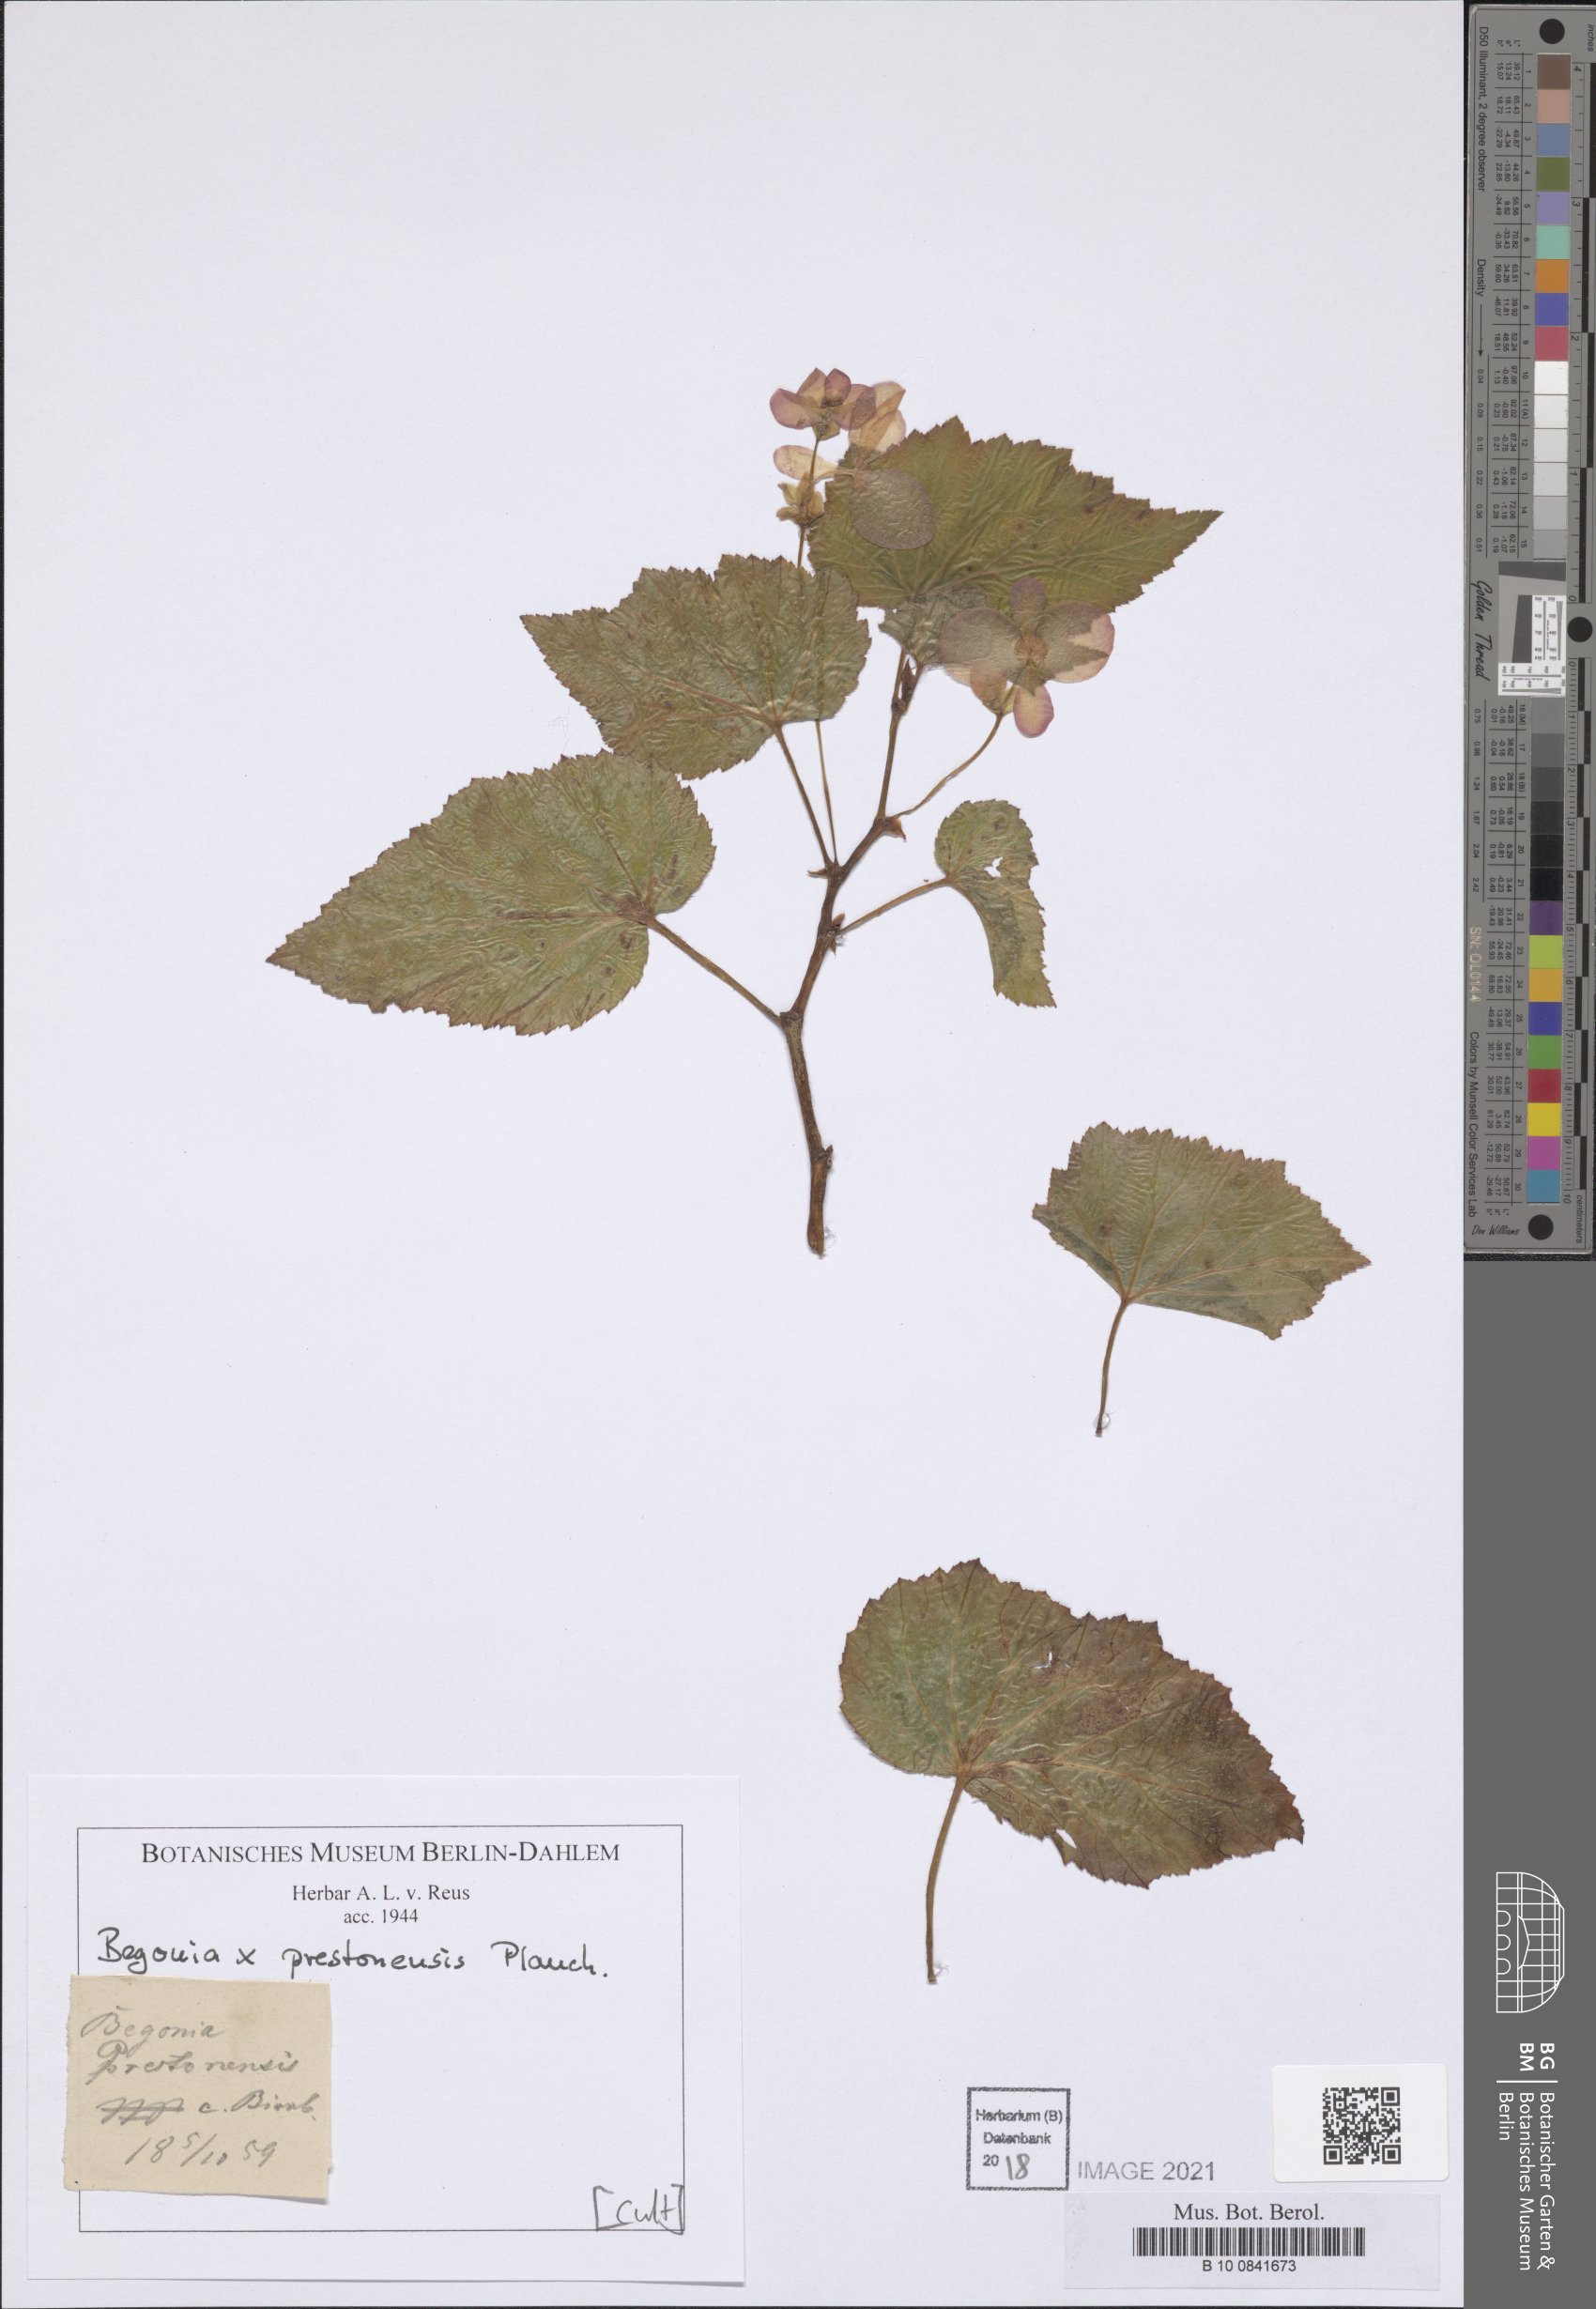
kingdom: Plantae
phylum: Tracheophyta
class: Magnoliopsida
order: Cucurbitales
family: Begoniaceae
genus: Begonia
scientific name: Begonia prestoniensis
